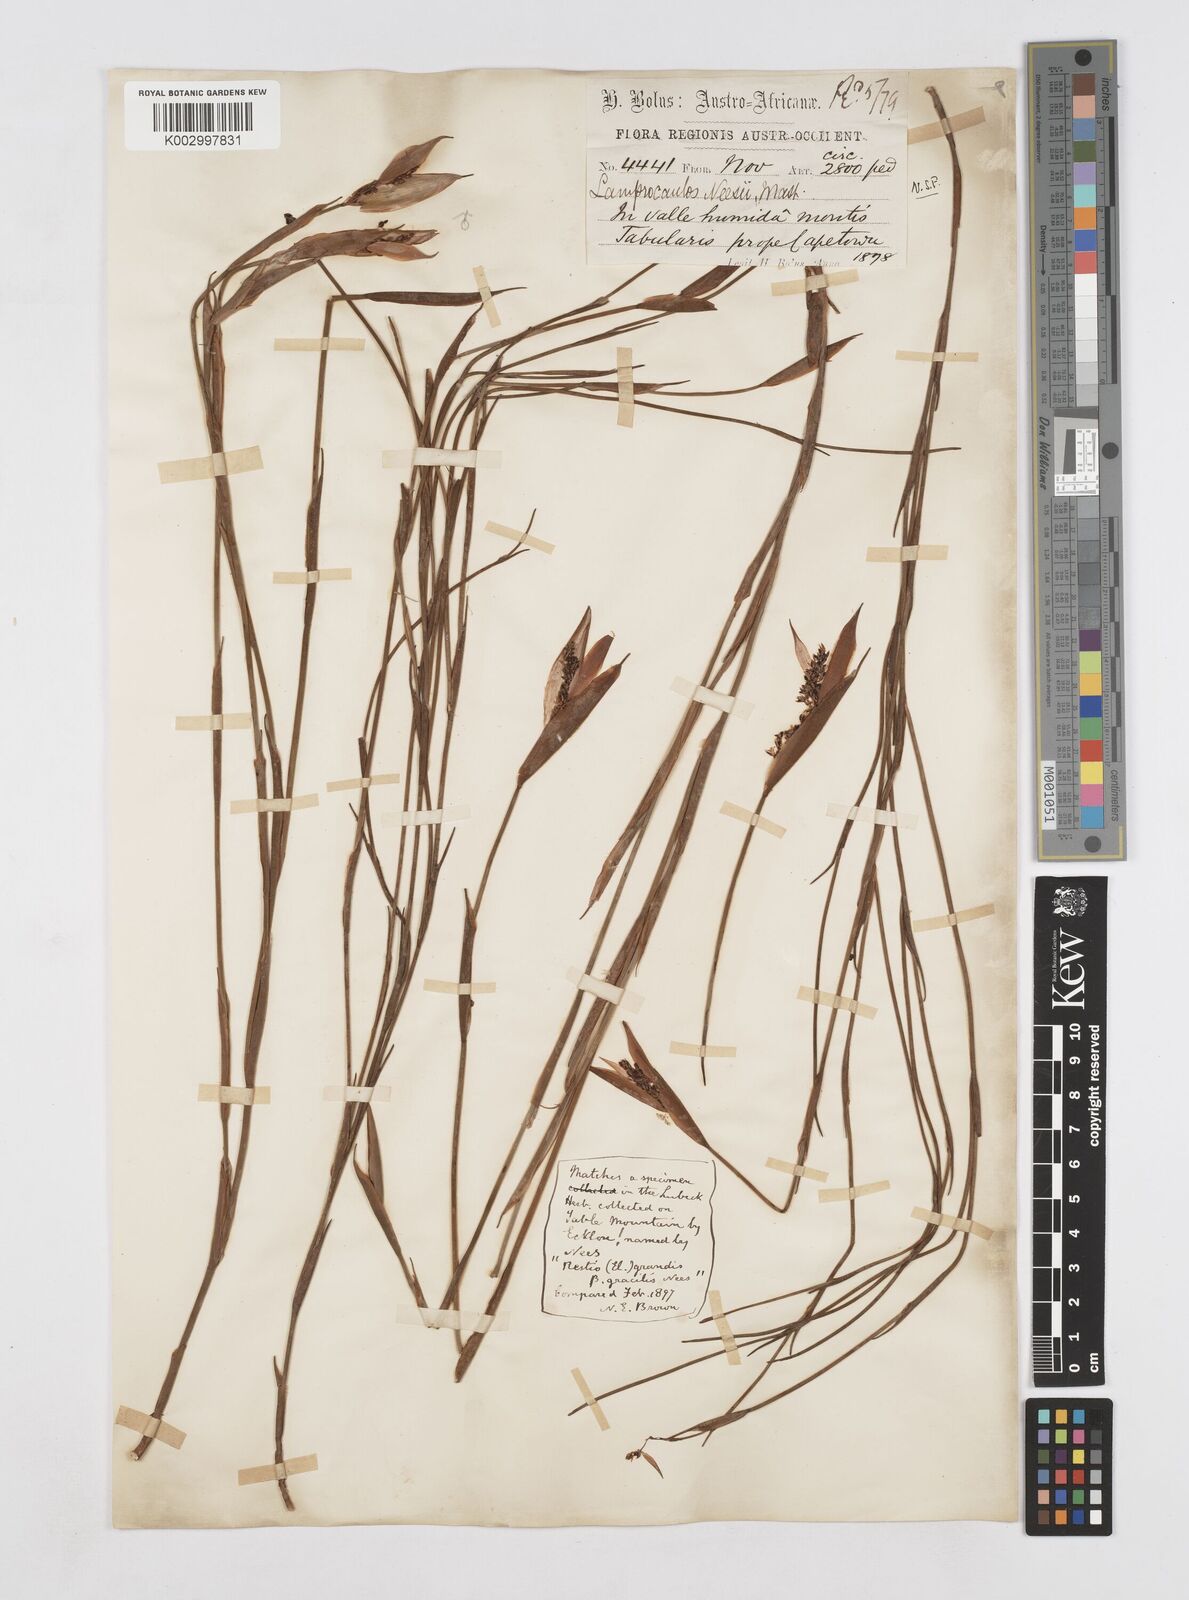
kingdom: Plantae
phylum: Tracheophyta
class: Liliopsida
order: Poales
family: Restionaceae
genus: Elegia
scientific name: Elegia neesii
